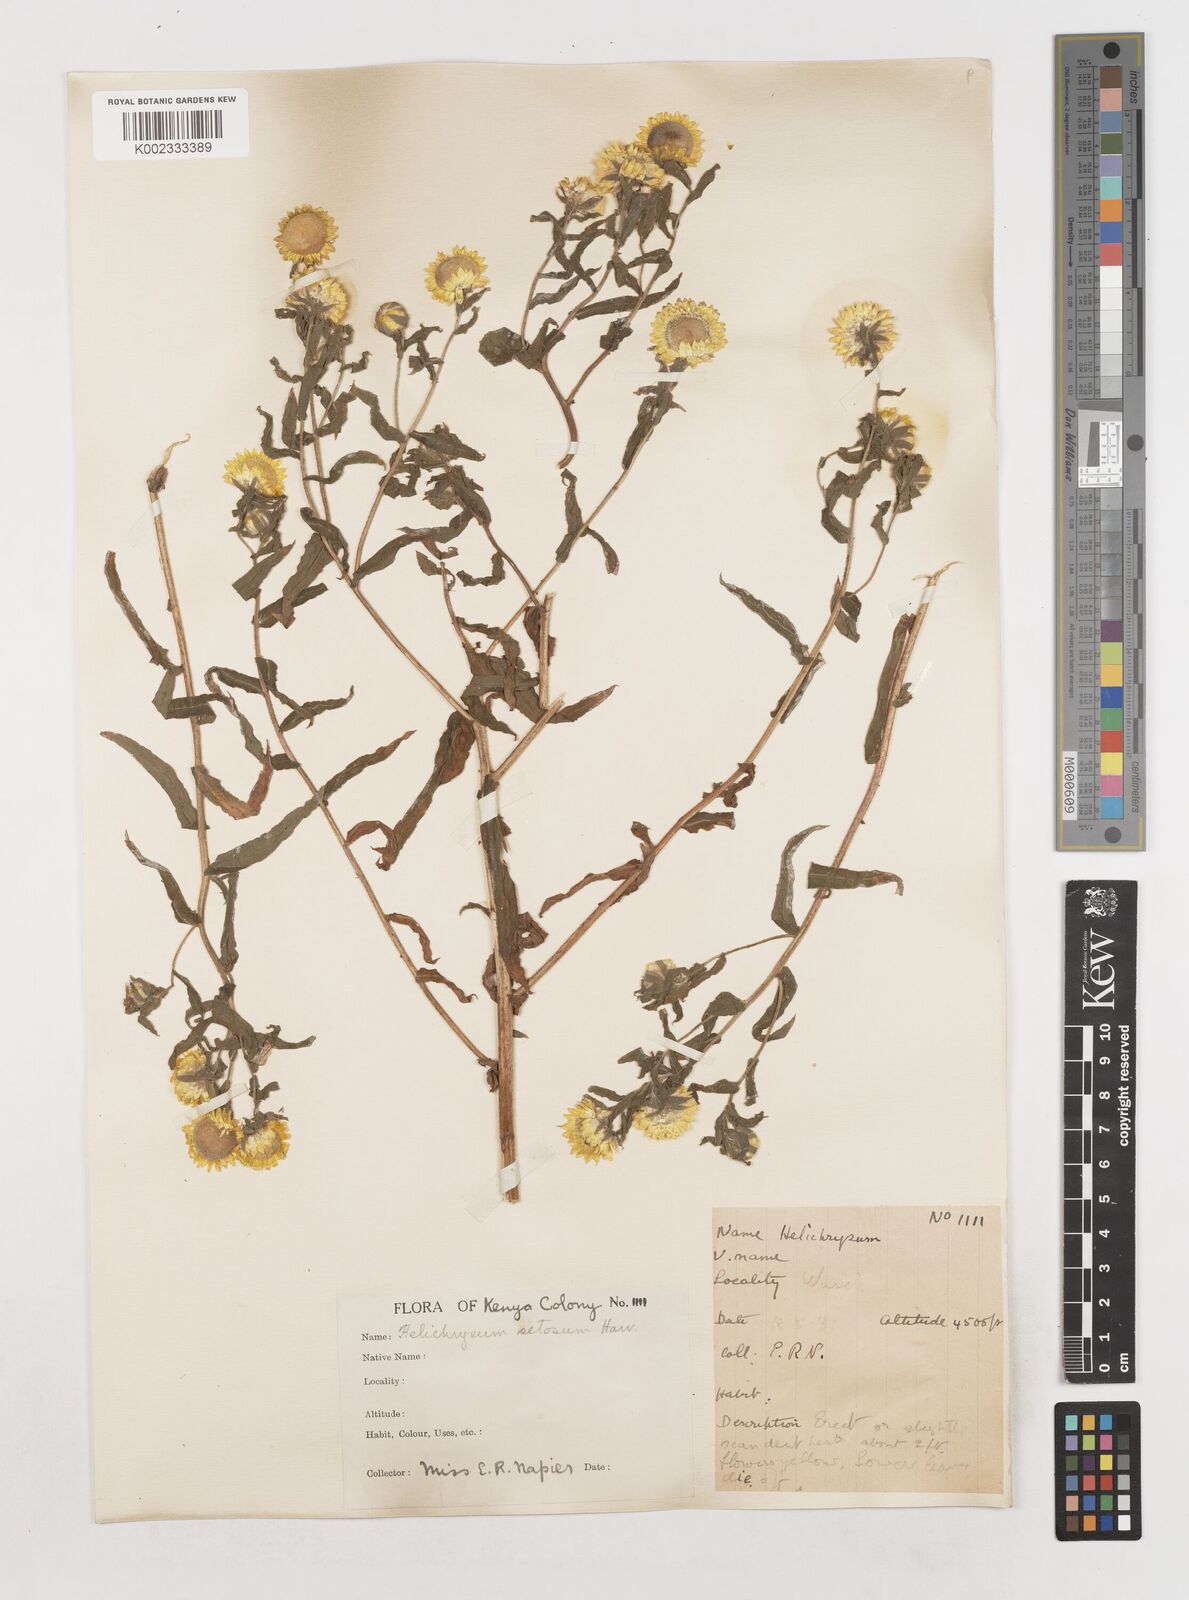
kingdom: Plantae
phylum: Tracheophyta
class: Magnoliopsida
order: Asterales
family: Asteraceae
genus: Helichrysum
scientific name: Helichrysum setosum
